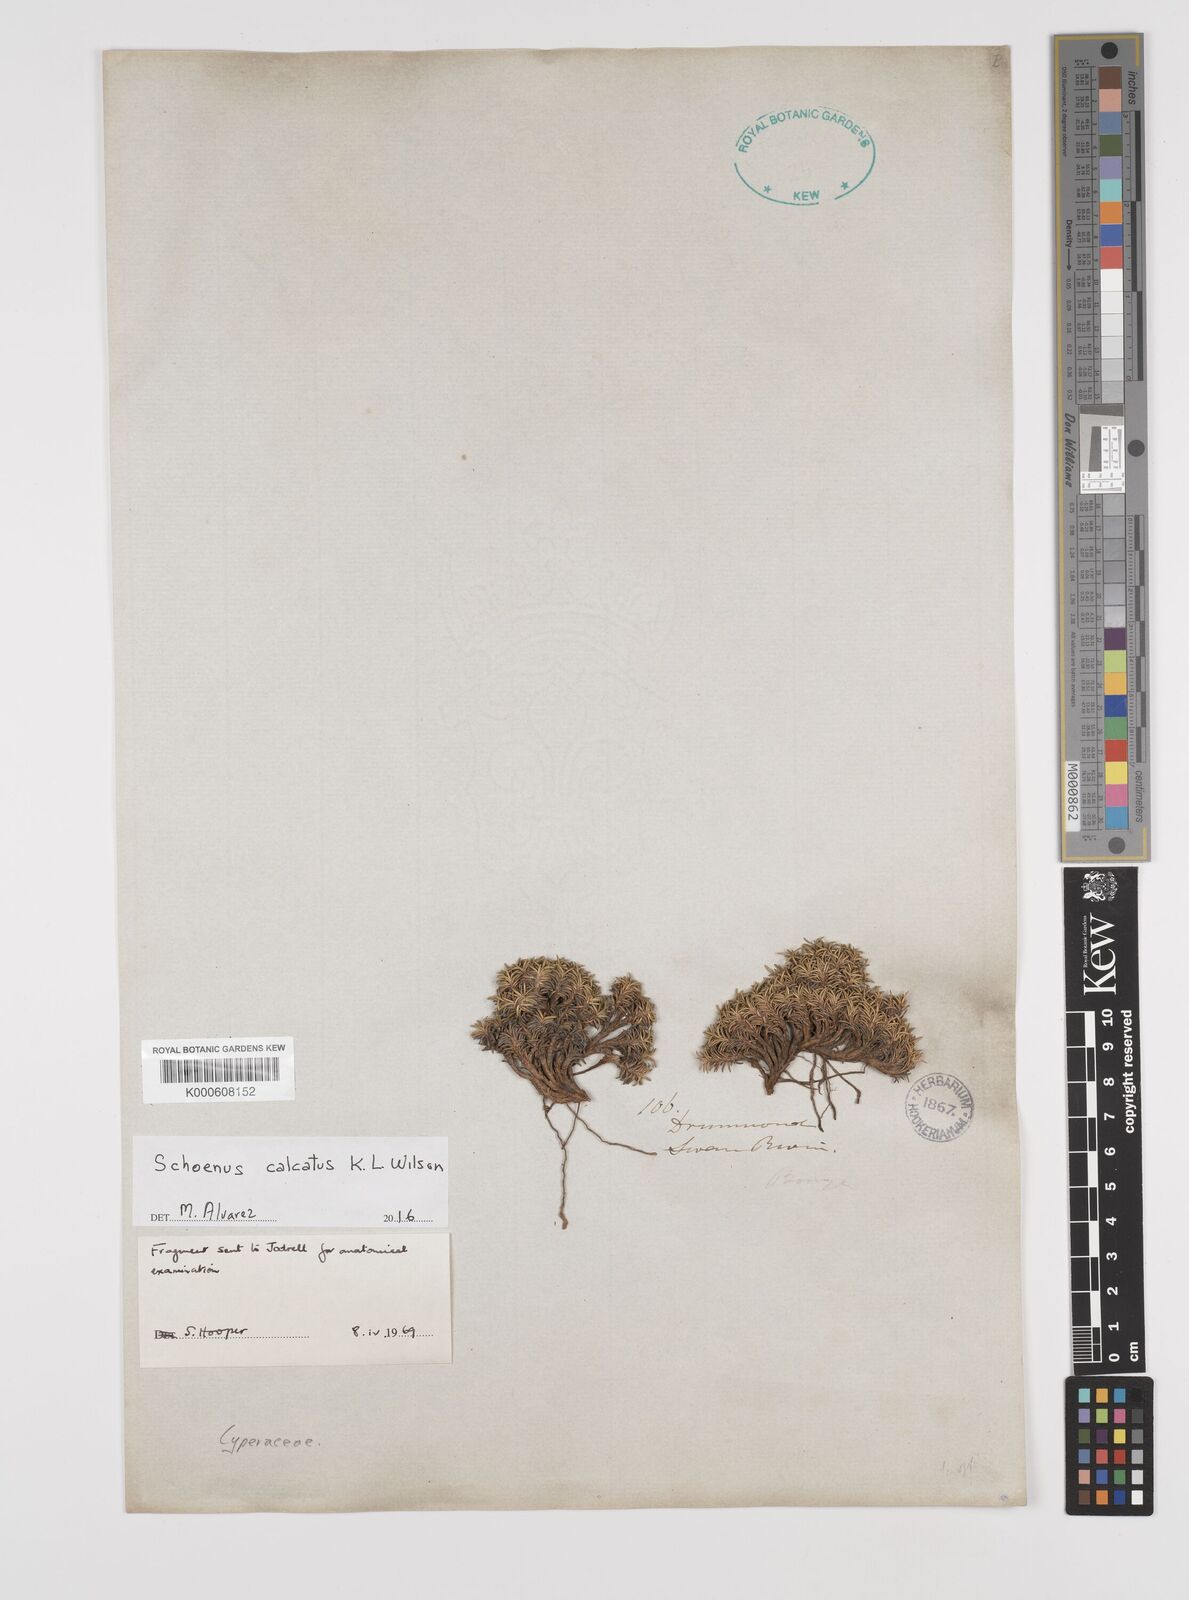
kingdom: Plantae
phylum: Tracheophyta
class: Liliopsida
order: Poales
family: Cyperaceae
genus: Schoenus
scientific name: Schoenus calcatus
